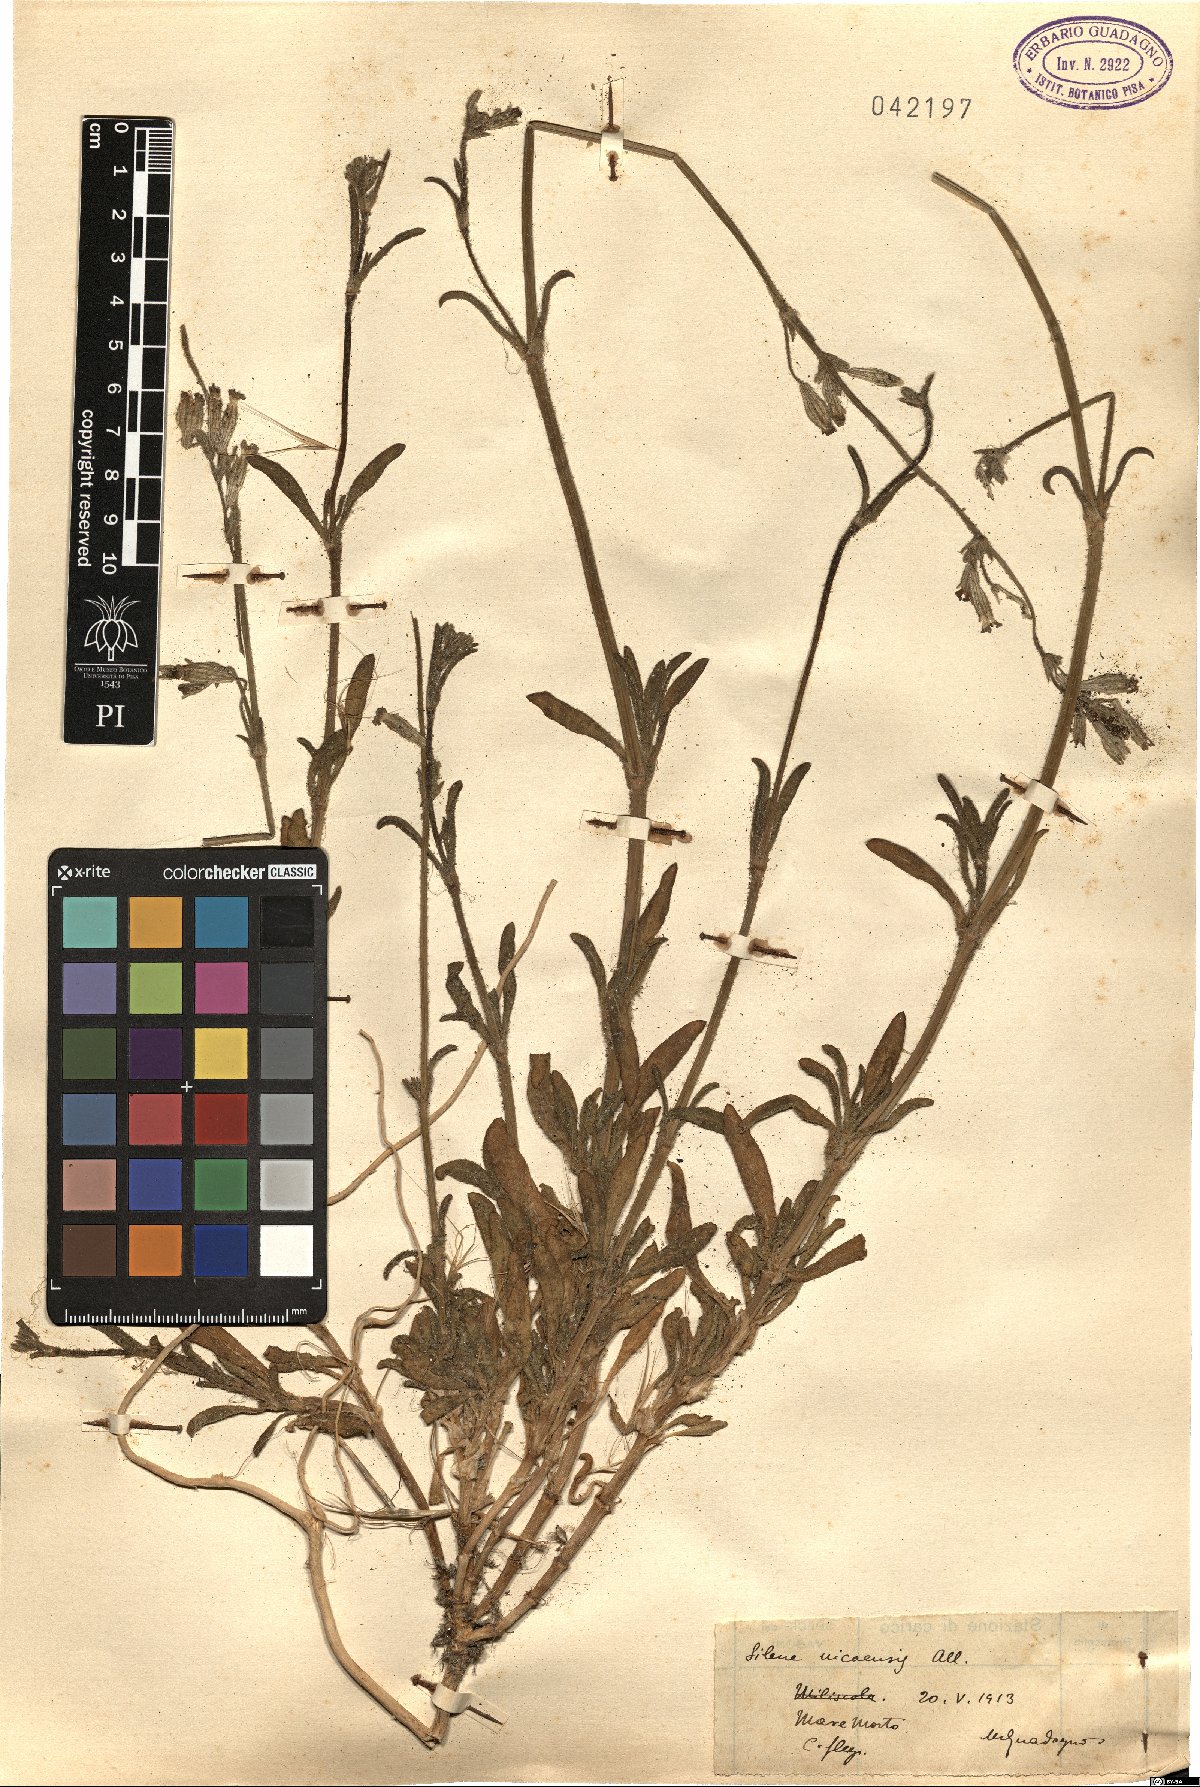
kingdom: Plantae
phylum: Tracheophyta
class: Magnoliopsida
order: Caryophyllales
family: Caryophyllaceae
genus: Silene
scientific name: Silene nicaeensis
